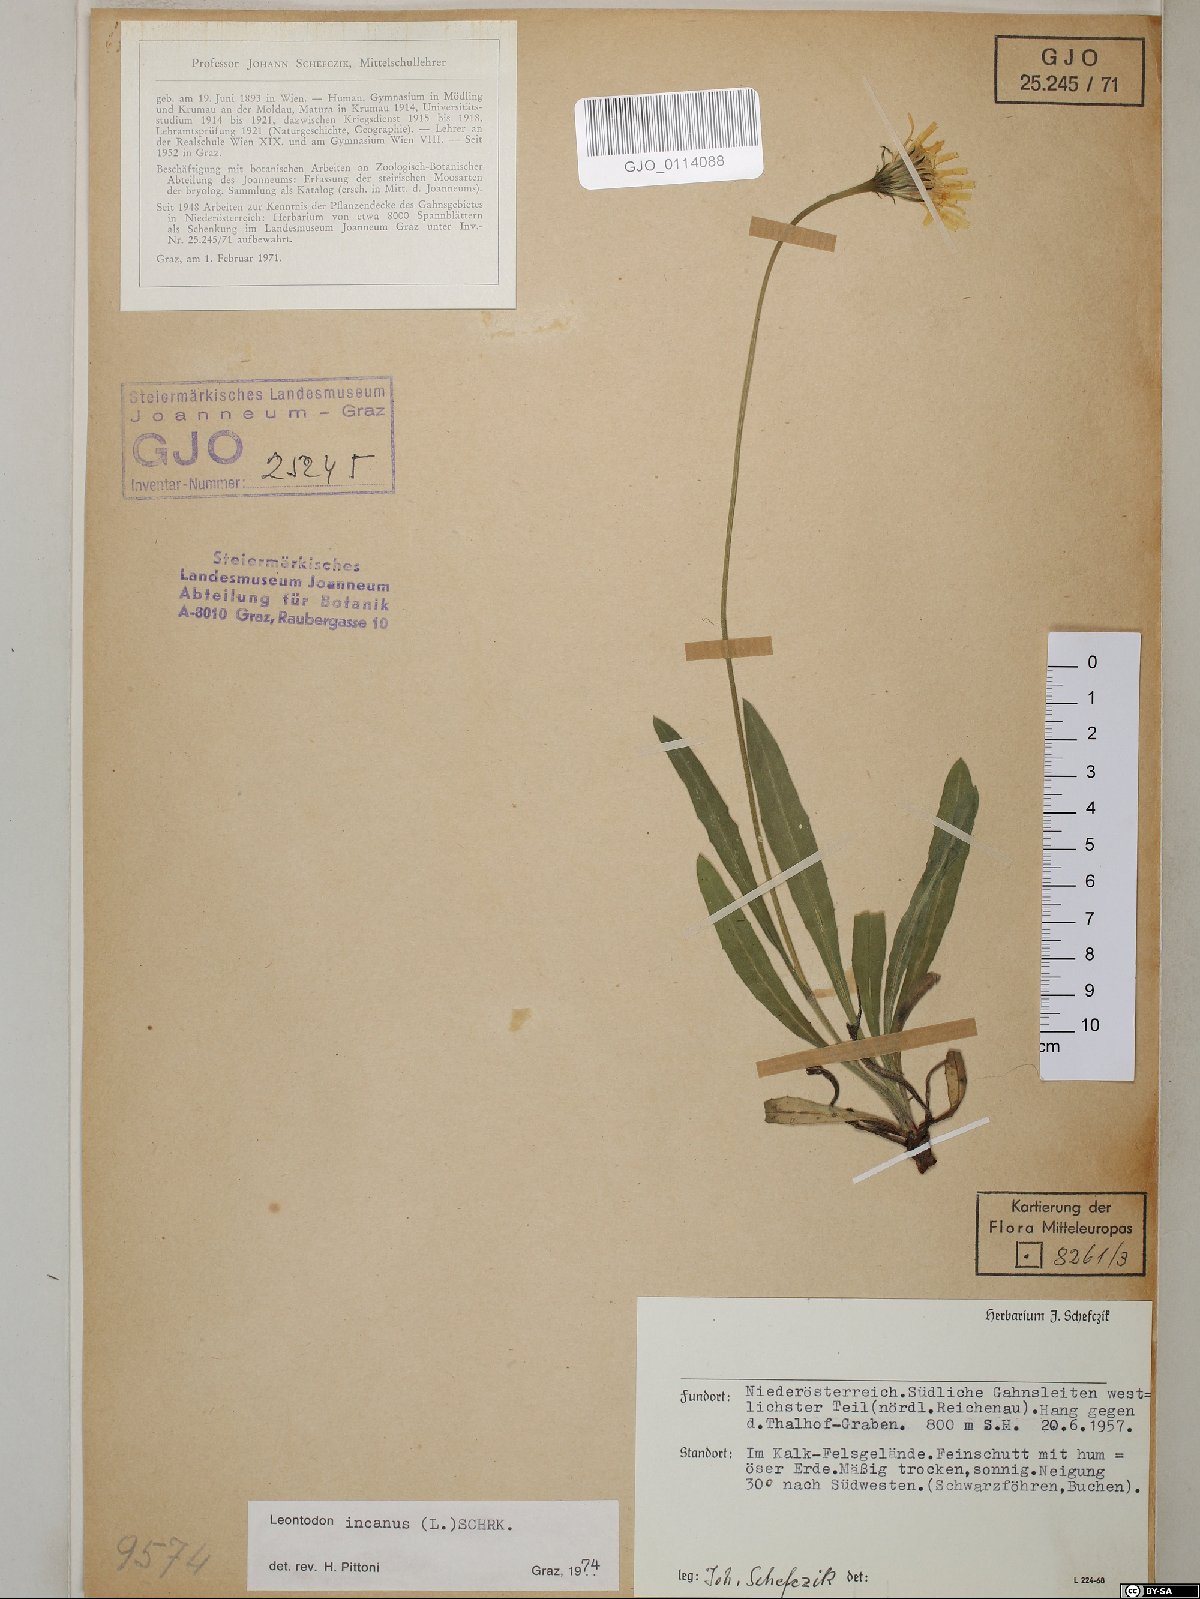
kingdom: Plantae
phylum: Tracheophyta
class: Magnoliopsida
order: Asterales
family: Asteraceae
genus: Leontodon
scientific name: Leontodon incanus
